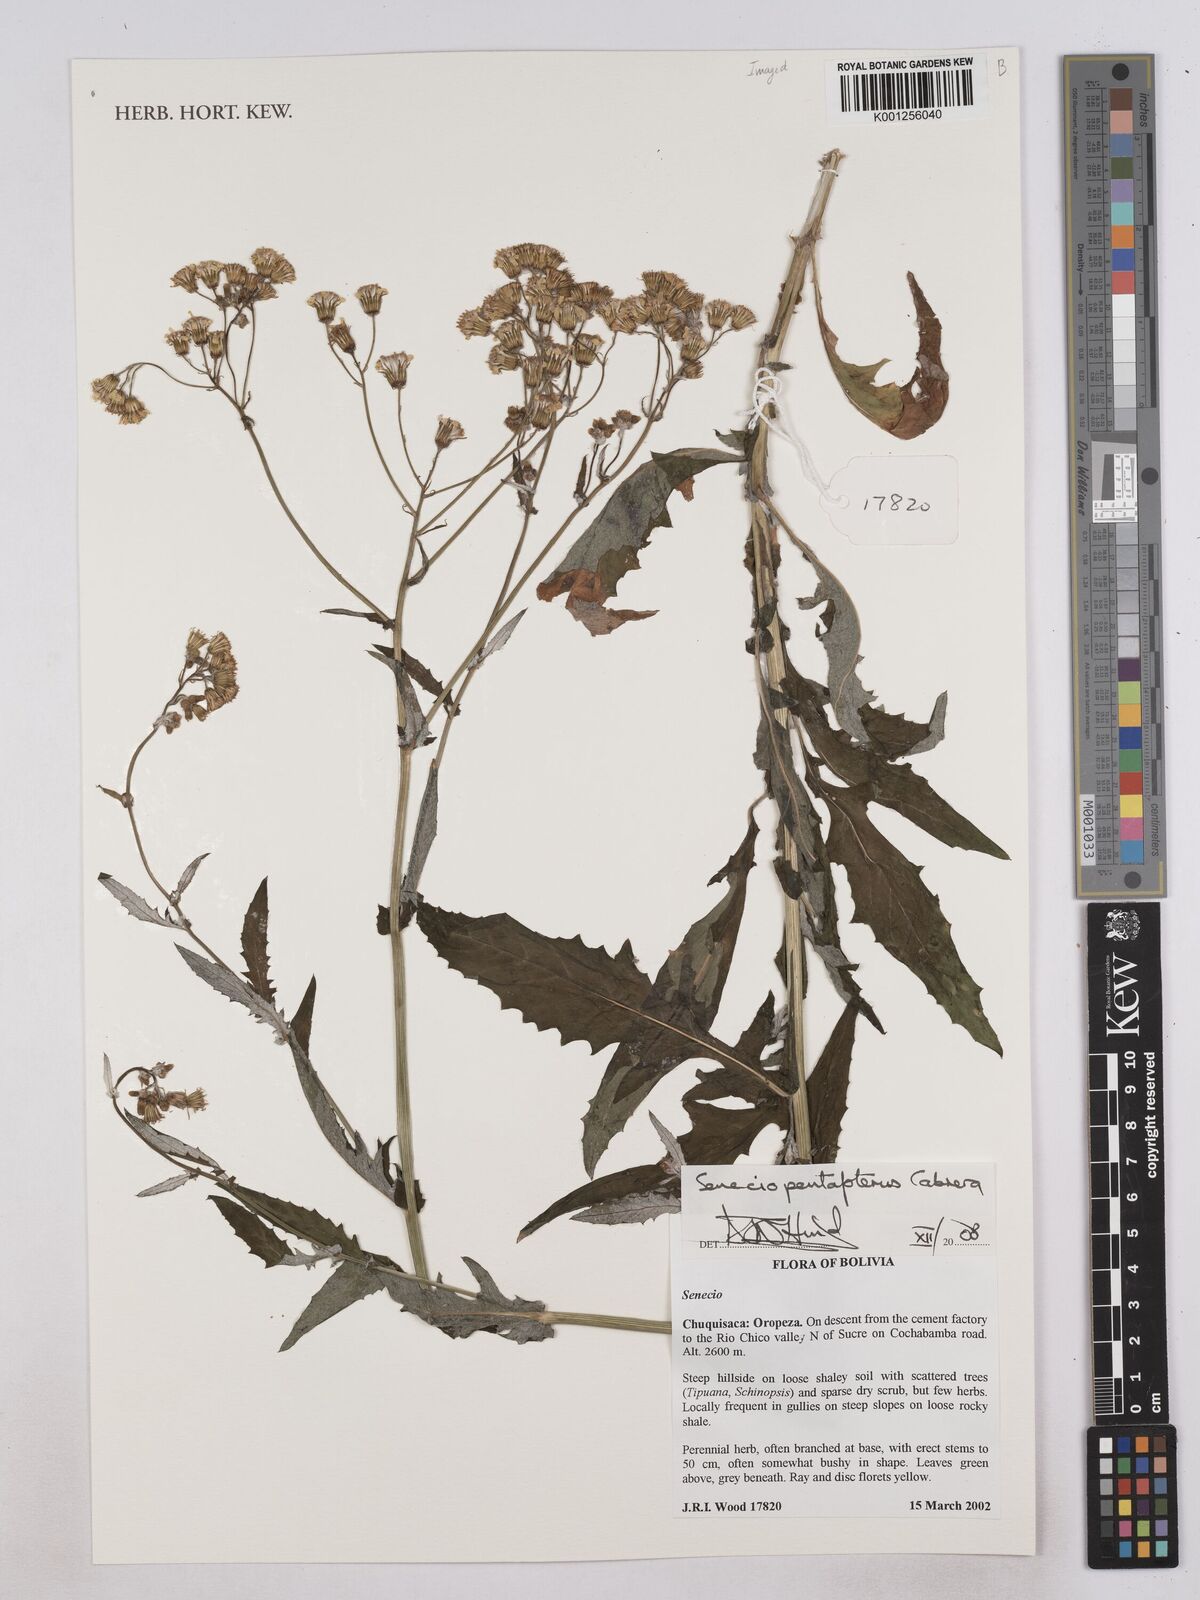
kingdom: Plantae
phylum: Tracheophyta
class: Magnoliopsida
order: Asterales
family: Asteraceae
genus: Senecio
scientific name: Senecio pentapterus
